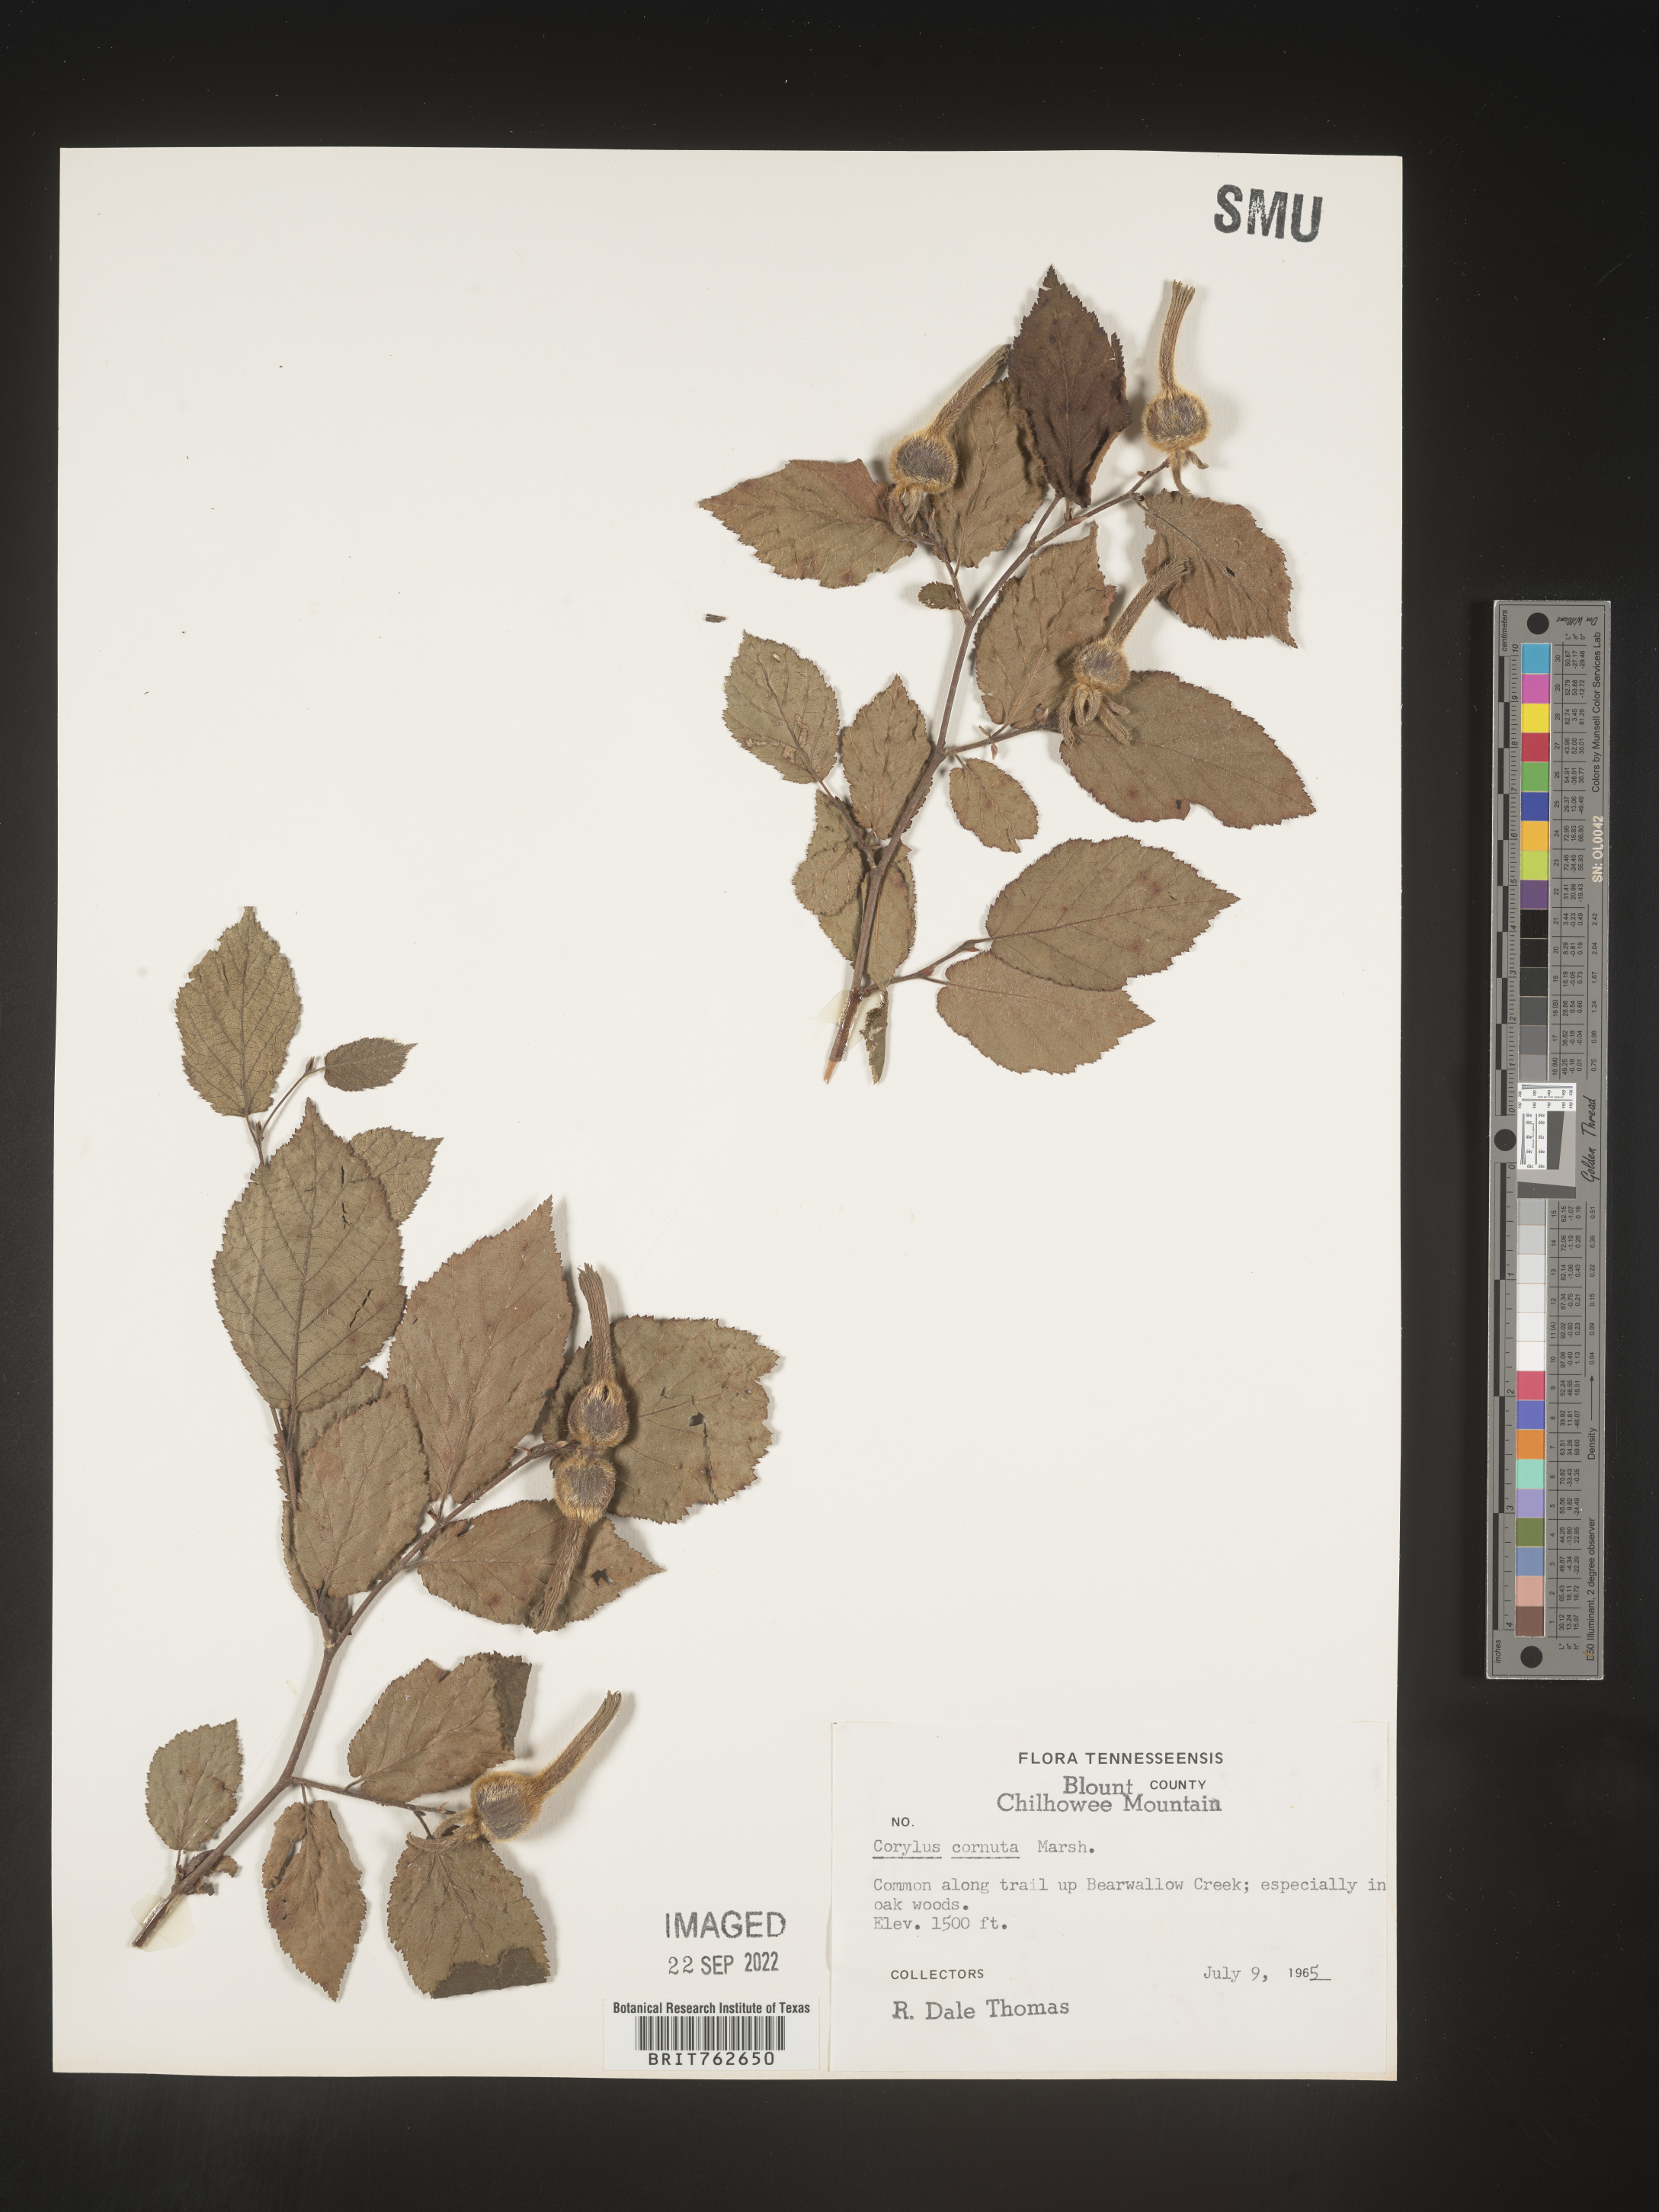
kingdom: Plantae
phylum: Tracheophyta
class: Magnoliopsida
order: Fagales
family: Betulaceae
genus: Corylus
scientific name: Corylus cornuta
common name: Beaked hazel
